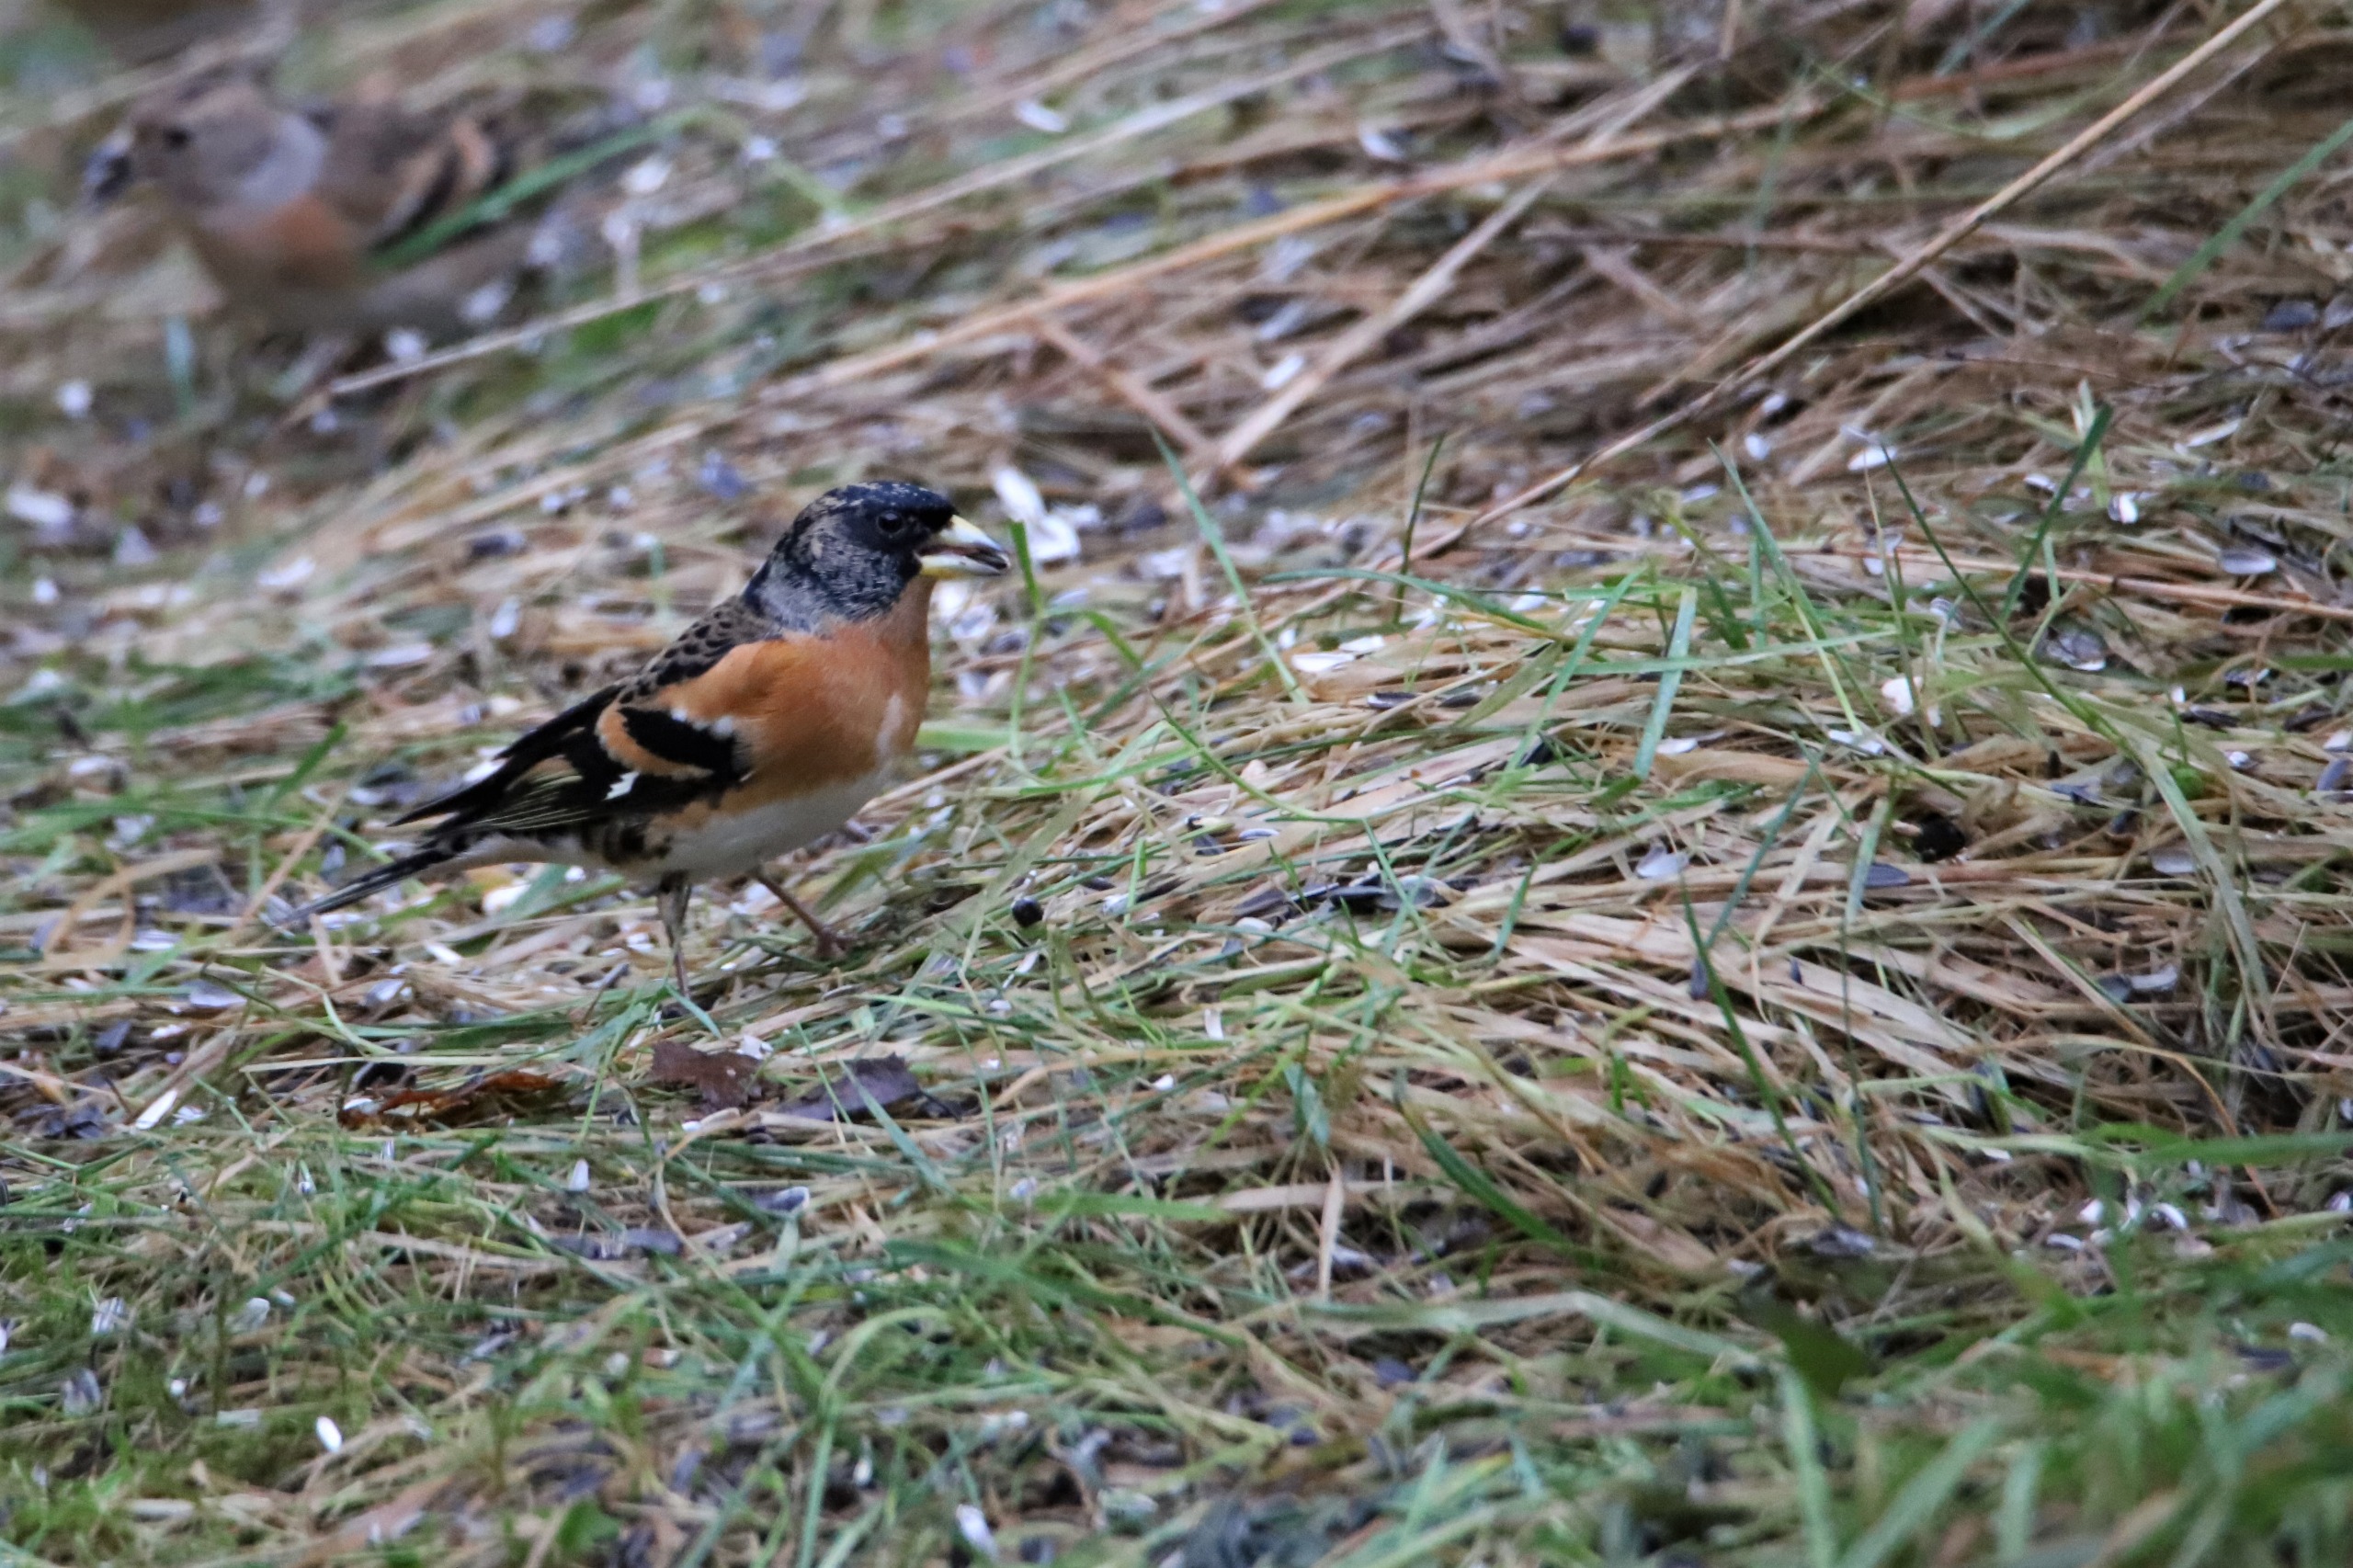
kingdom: Animalia
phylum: Chordata
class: Aves
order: Passeriformes
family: Fringillidae
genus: Fringilla
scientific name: Fringilla montifringilla
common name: Kvækerfinke
